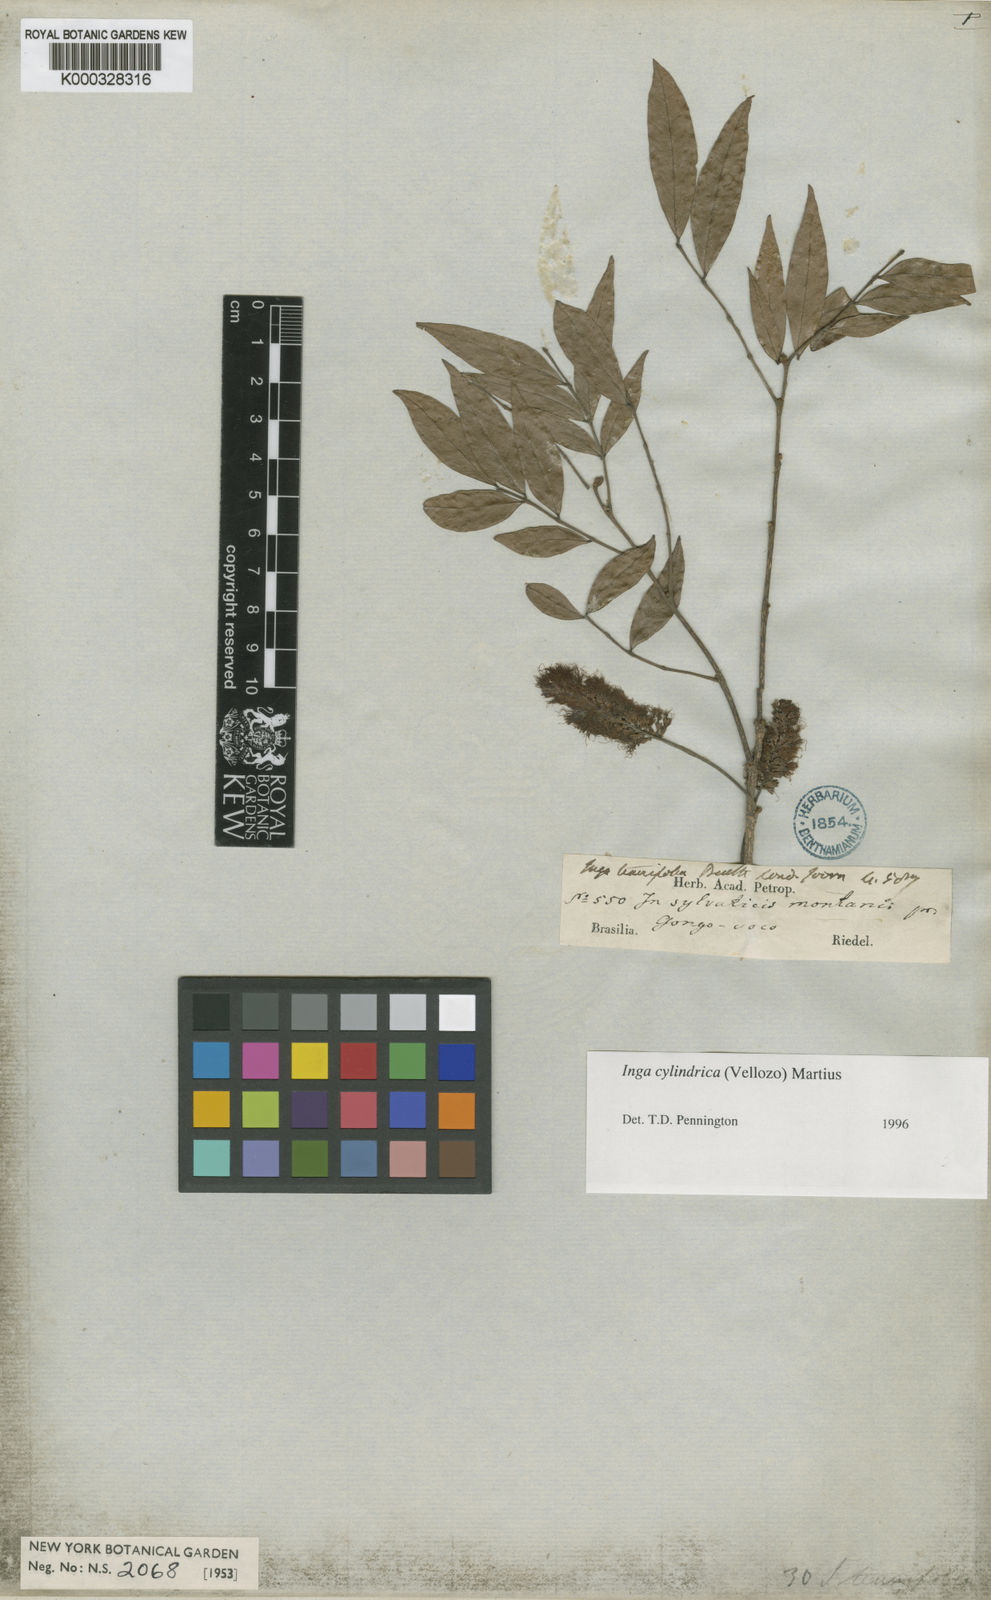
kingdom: Plantae
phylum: Tracheophyta
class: Magnoliopsida
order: Fabales
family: Fabaceae
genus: Inga
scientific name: Inga cylindrica
